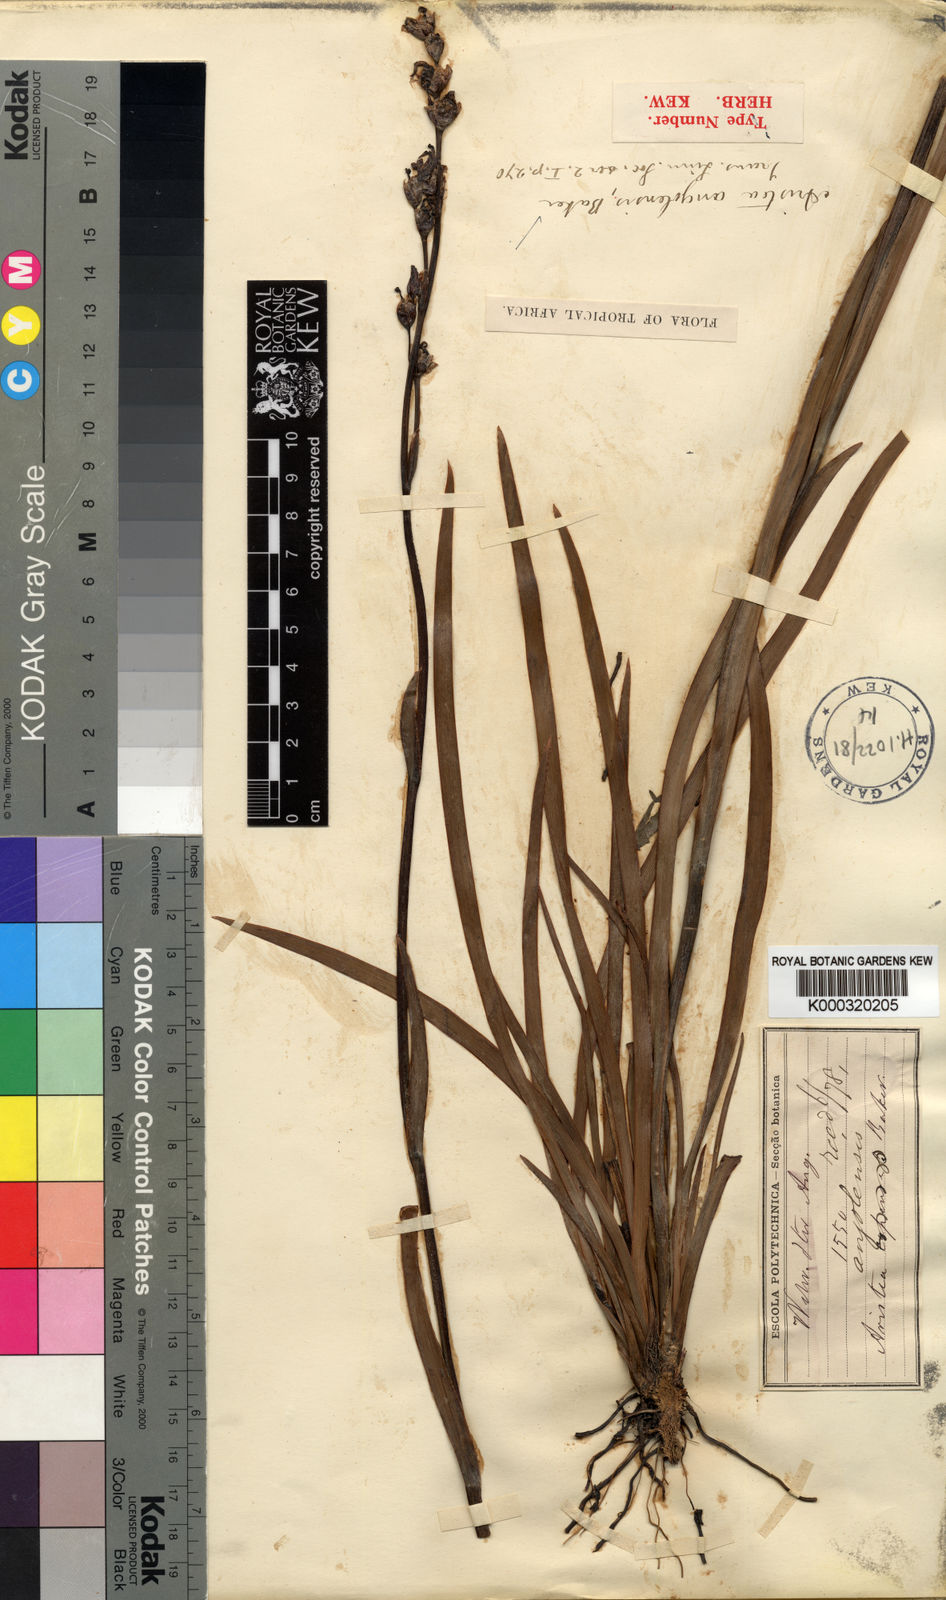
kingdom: Plantae
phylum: Tracheophyta
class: Liliopsida
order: Asparagales
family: Iridaceae
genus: Aristea
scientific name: Aristea angolensis
